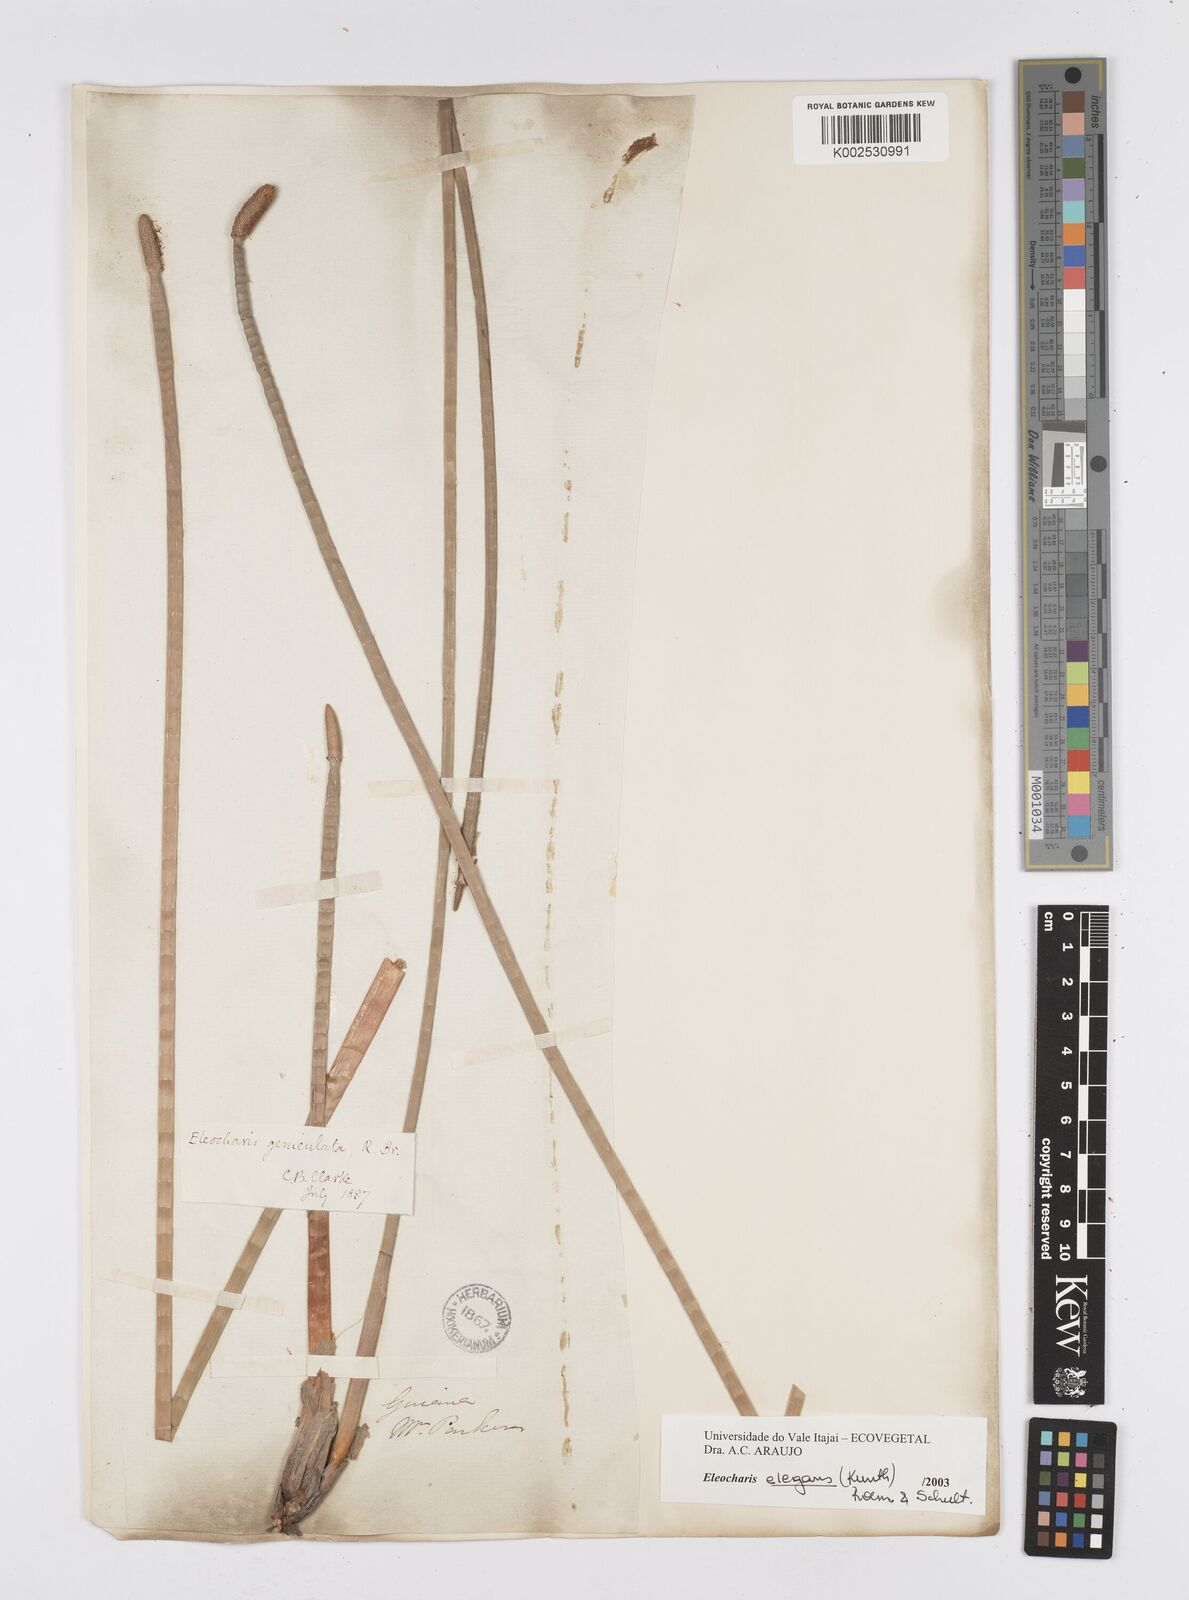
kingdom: Plantae
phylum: Tracheophyta
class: Liliopsida
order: Poales
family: Cyperaceae
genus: Eleocharis
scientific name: Eleocharis elegans
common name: Elegant spike-rush
